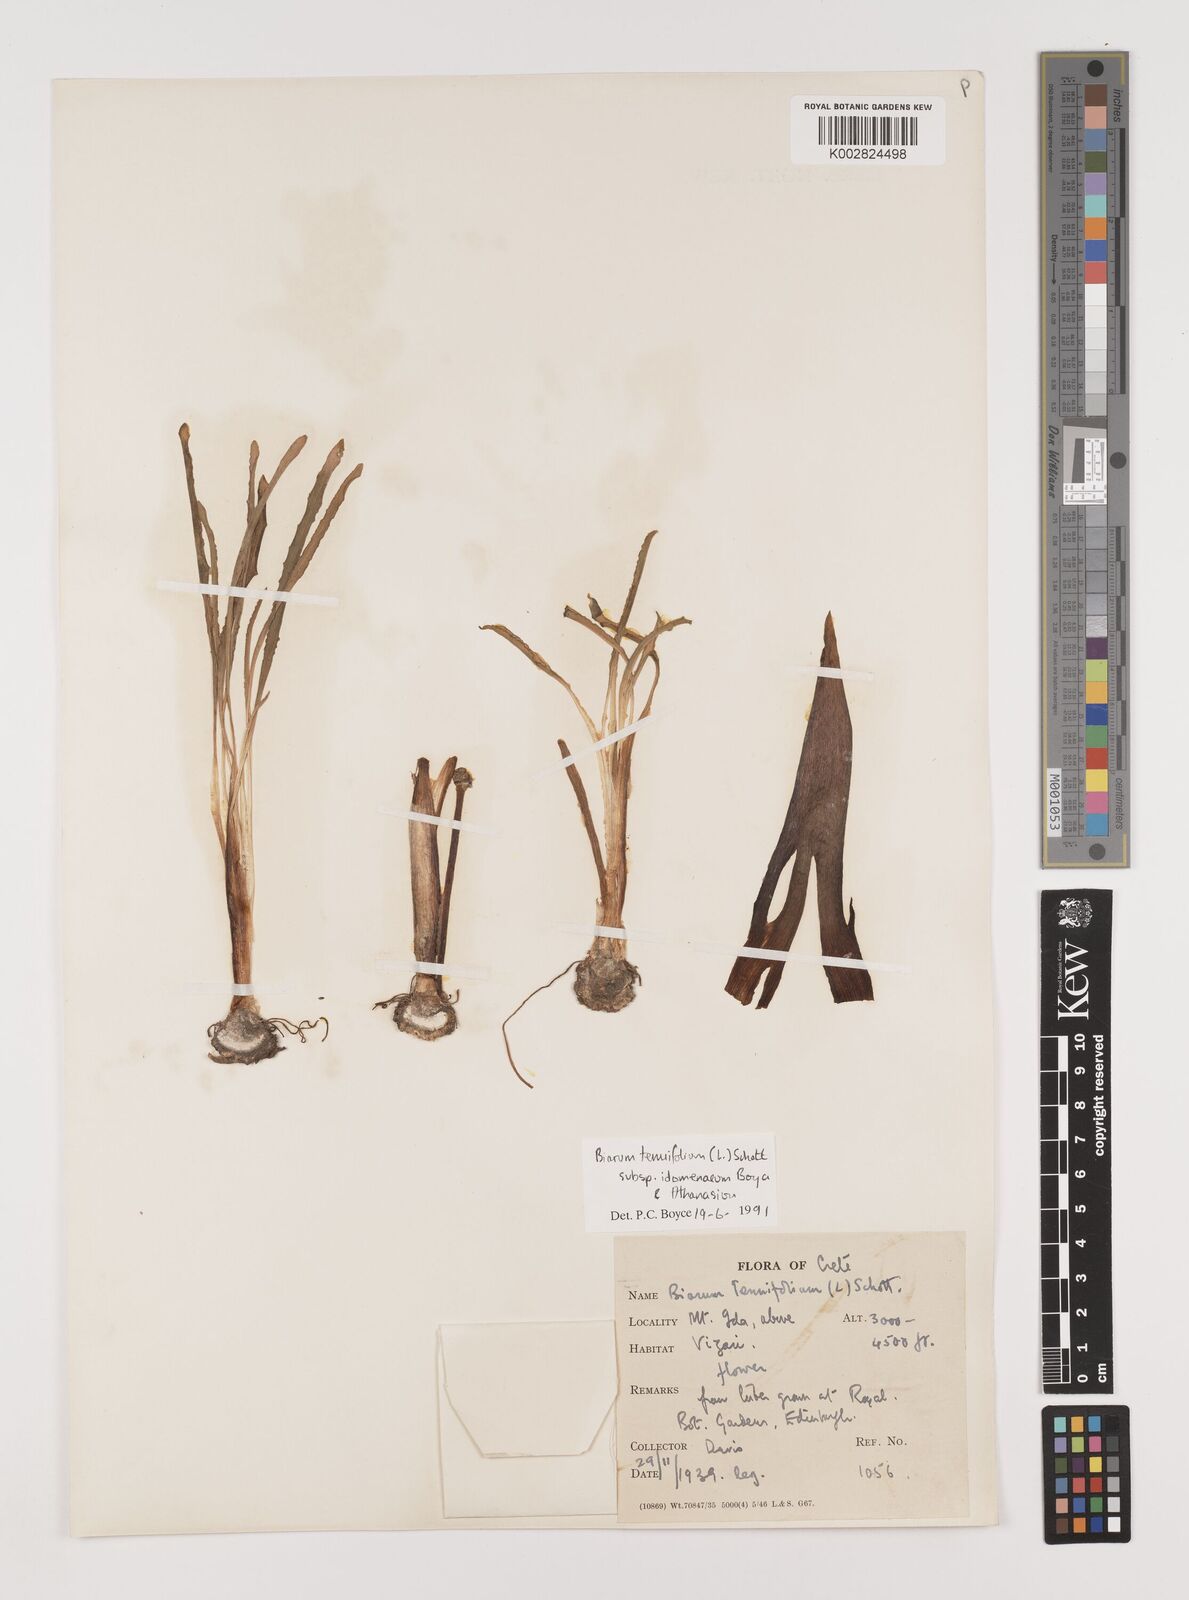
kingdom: Plantae
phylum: Tracheophyta
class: Liliopsida
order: Alismatales
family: Araceae
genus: Biarum
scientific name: Biarum tenuifolium
